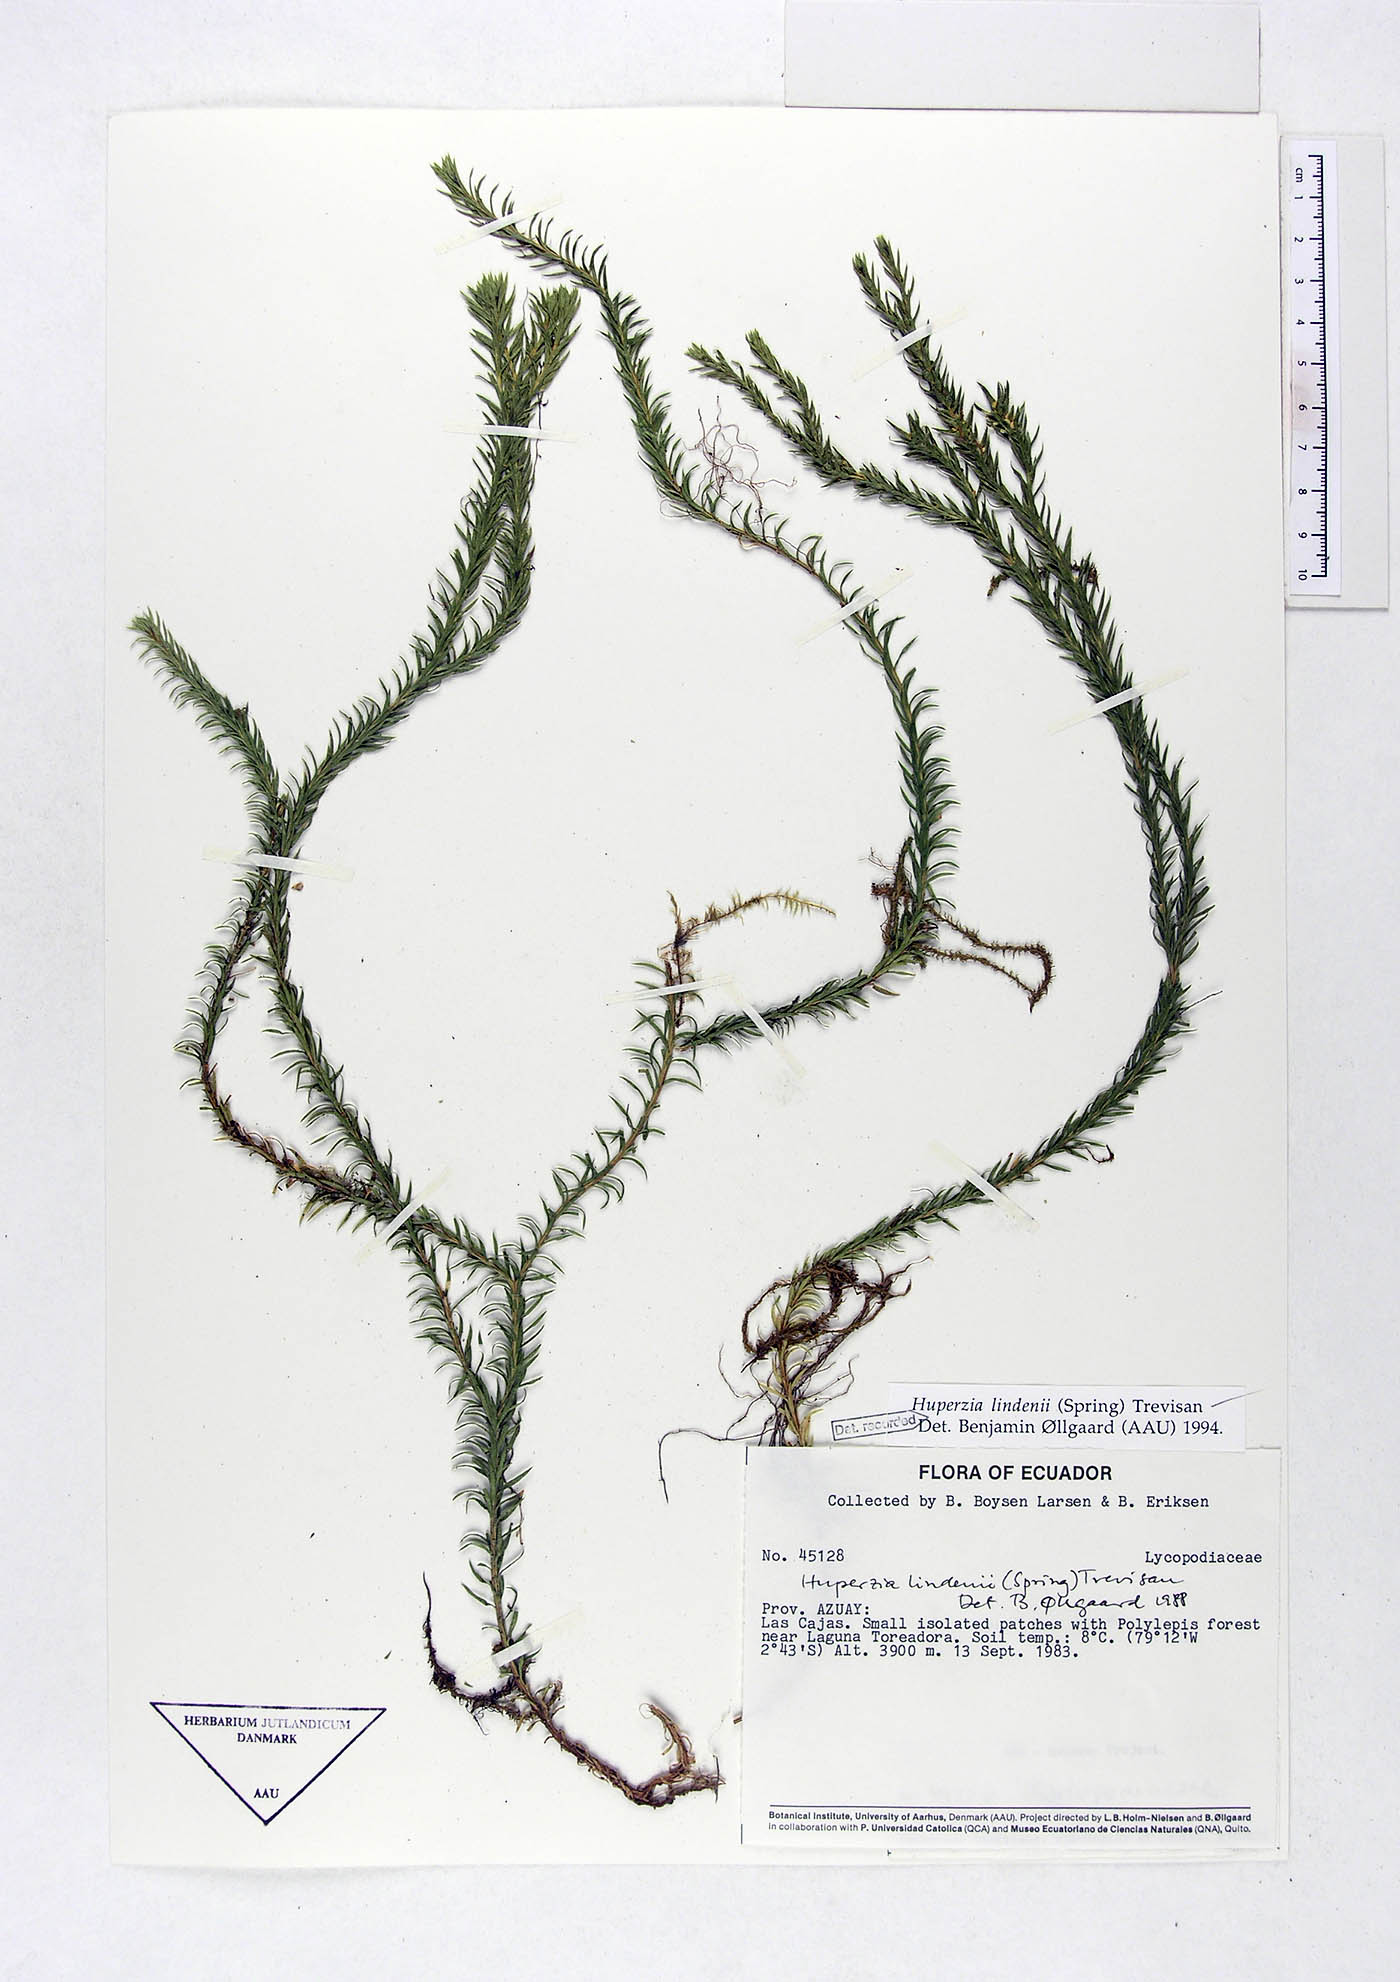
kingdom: Plantae
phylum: Tracheophyta
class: Lycopodiopsida
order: Lycopodiales
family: Lycopodiaceae
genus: Phlegmariurus
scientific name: Phlegmariurus lindenii
